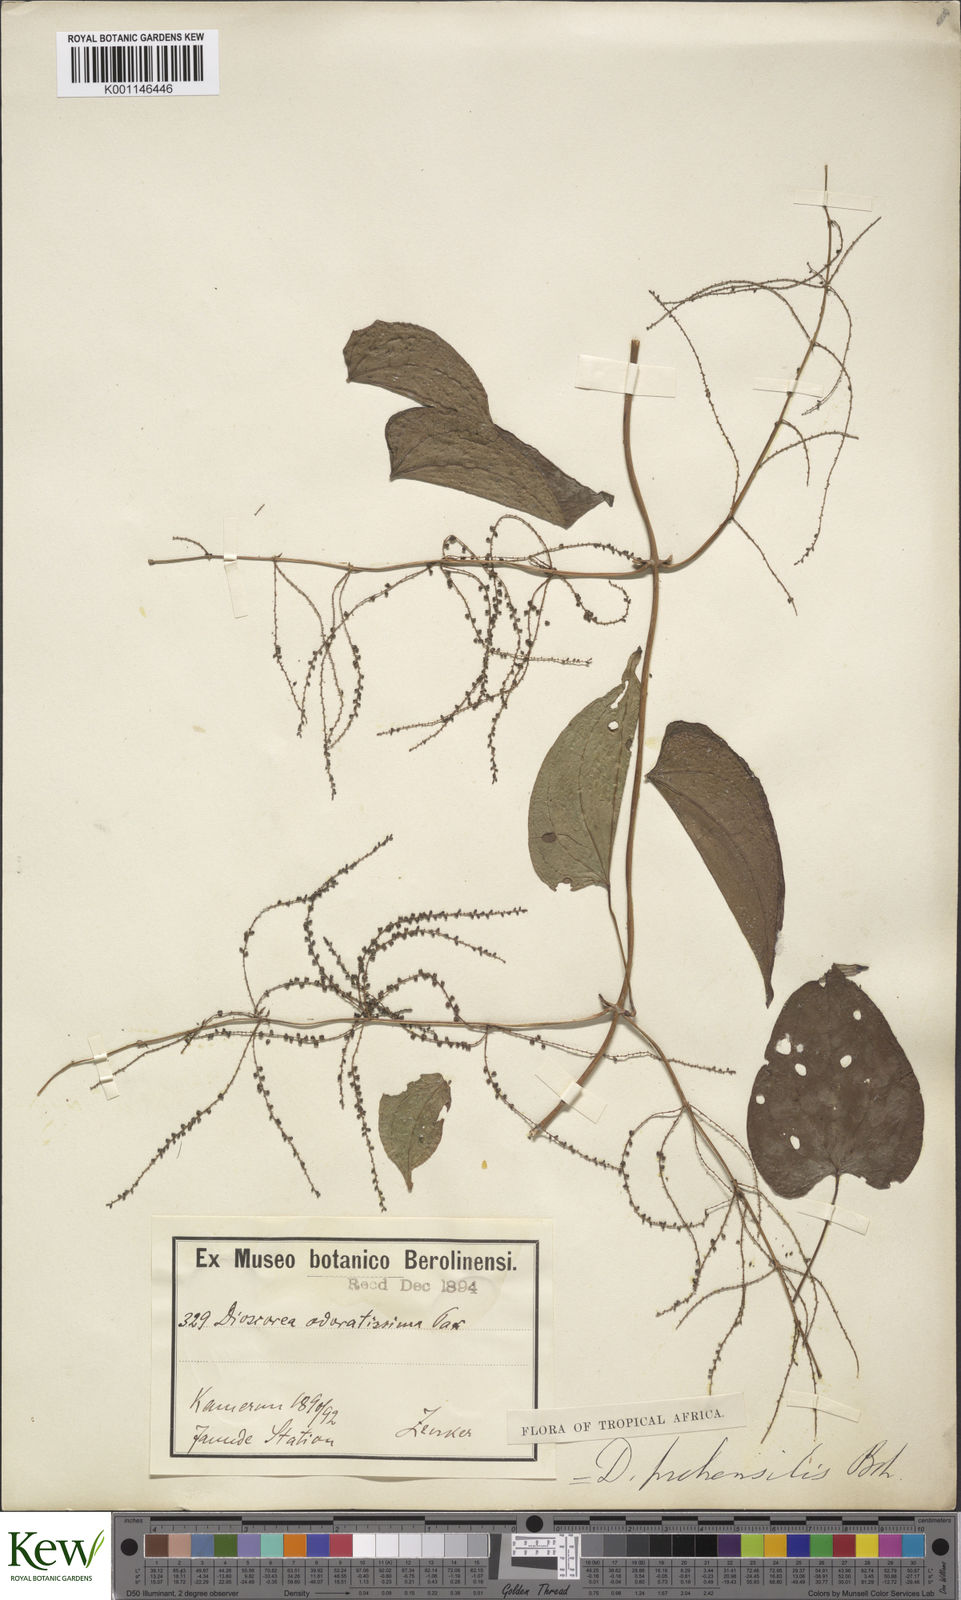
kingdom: Plantae
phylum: Tracheophyta
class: Liliopsida
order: Dioscoreales
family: Dioscoreaceae
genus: Dioscorea
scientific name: Dioscorea praehensilis
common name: Bush yam
